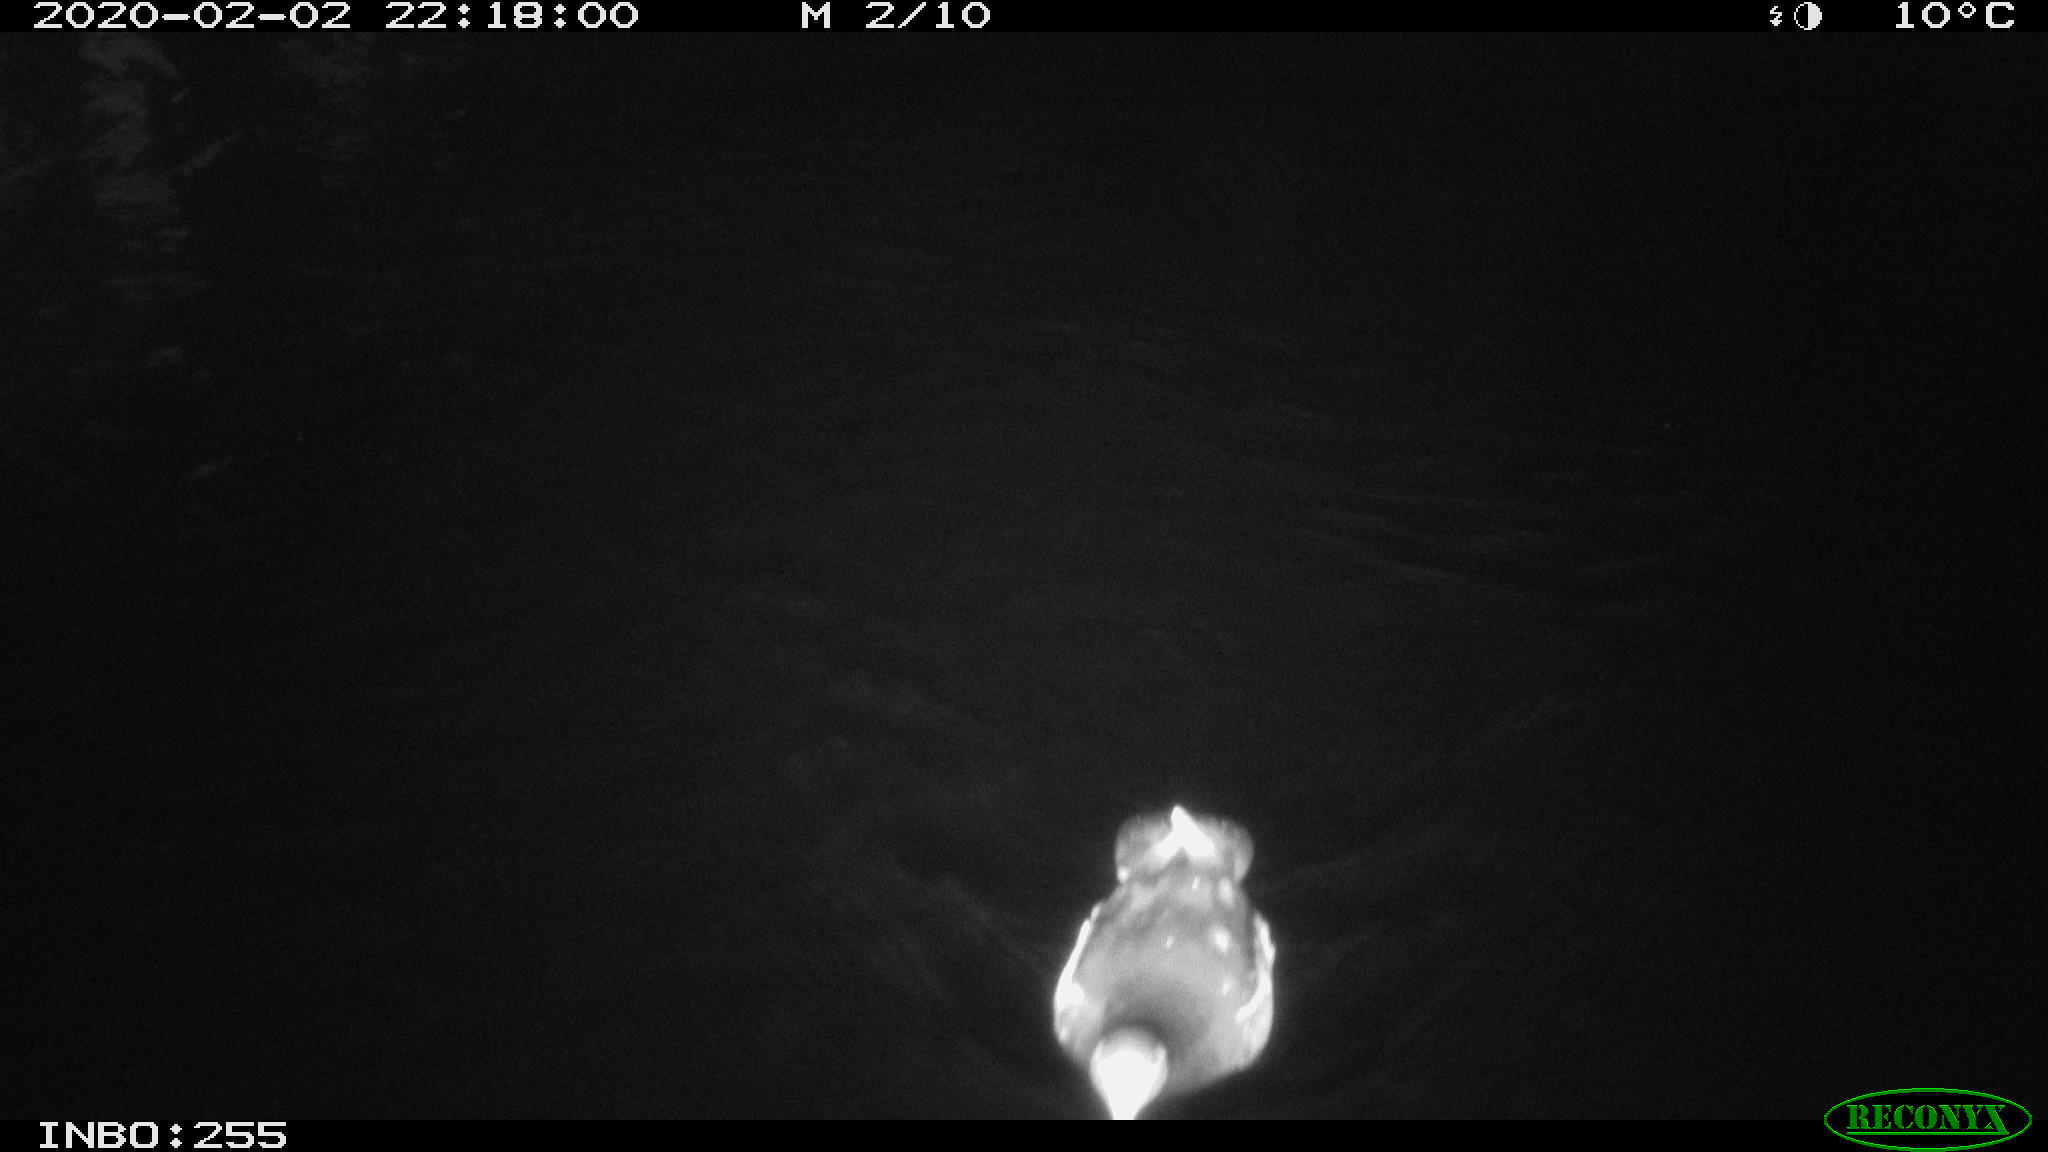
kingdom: Animalia
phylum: Chordata
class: Aves
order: Gruiformes
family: Rallidae
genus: Gallinula
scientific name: Gallinula chloropus
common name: Common moorhen
